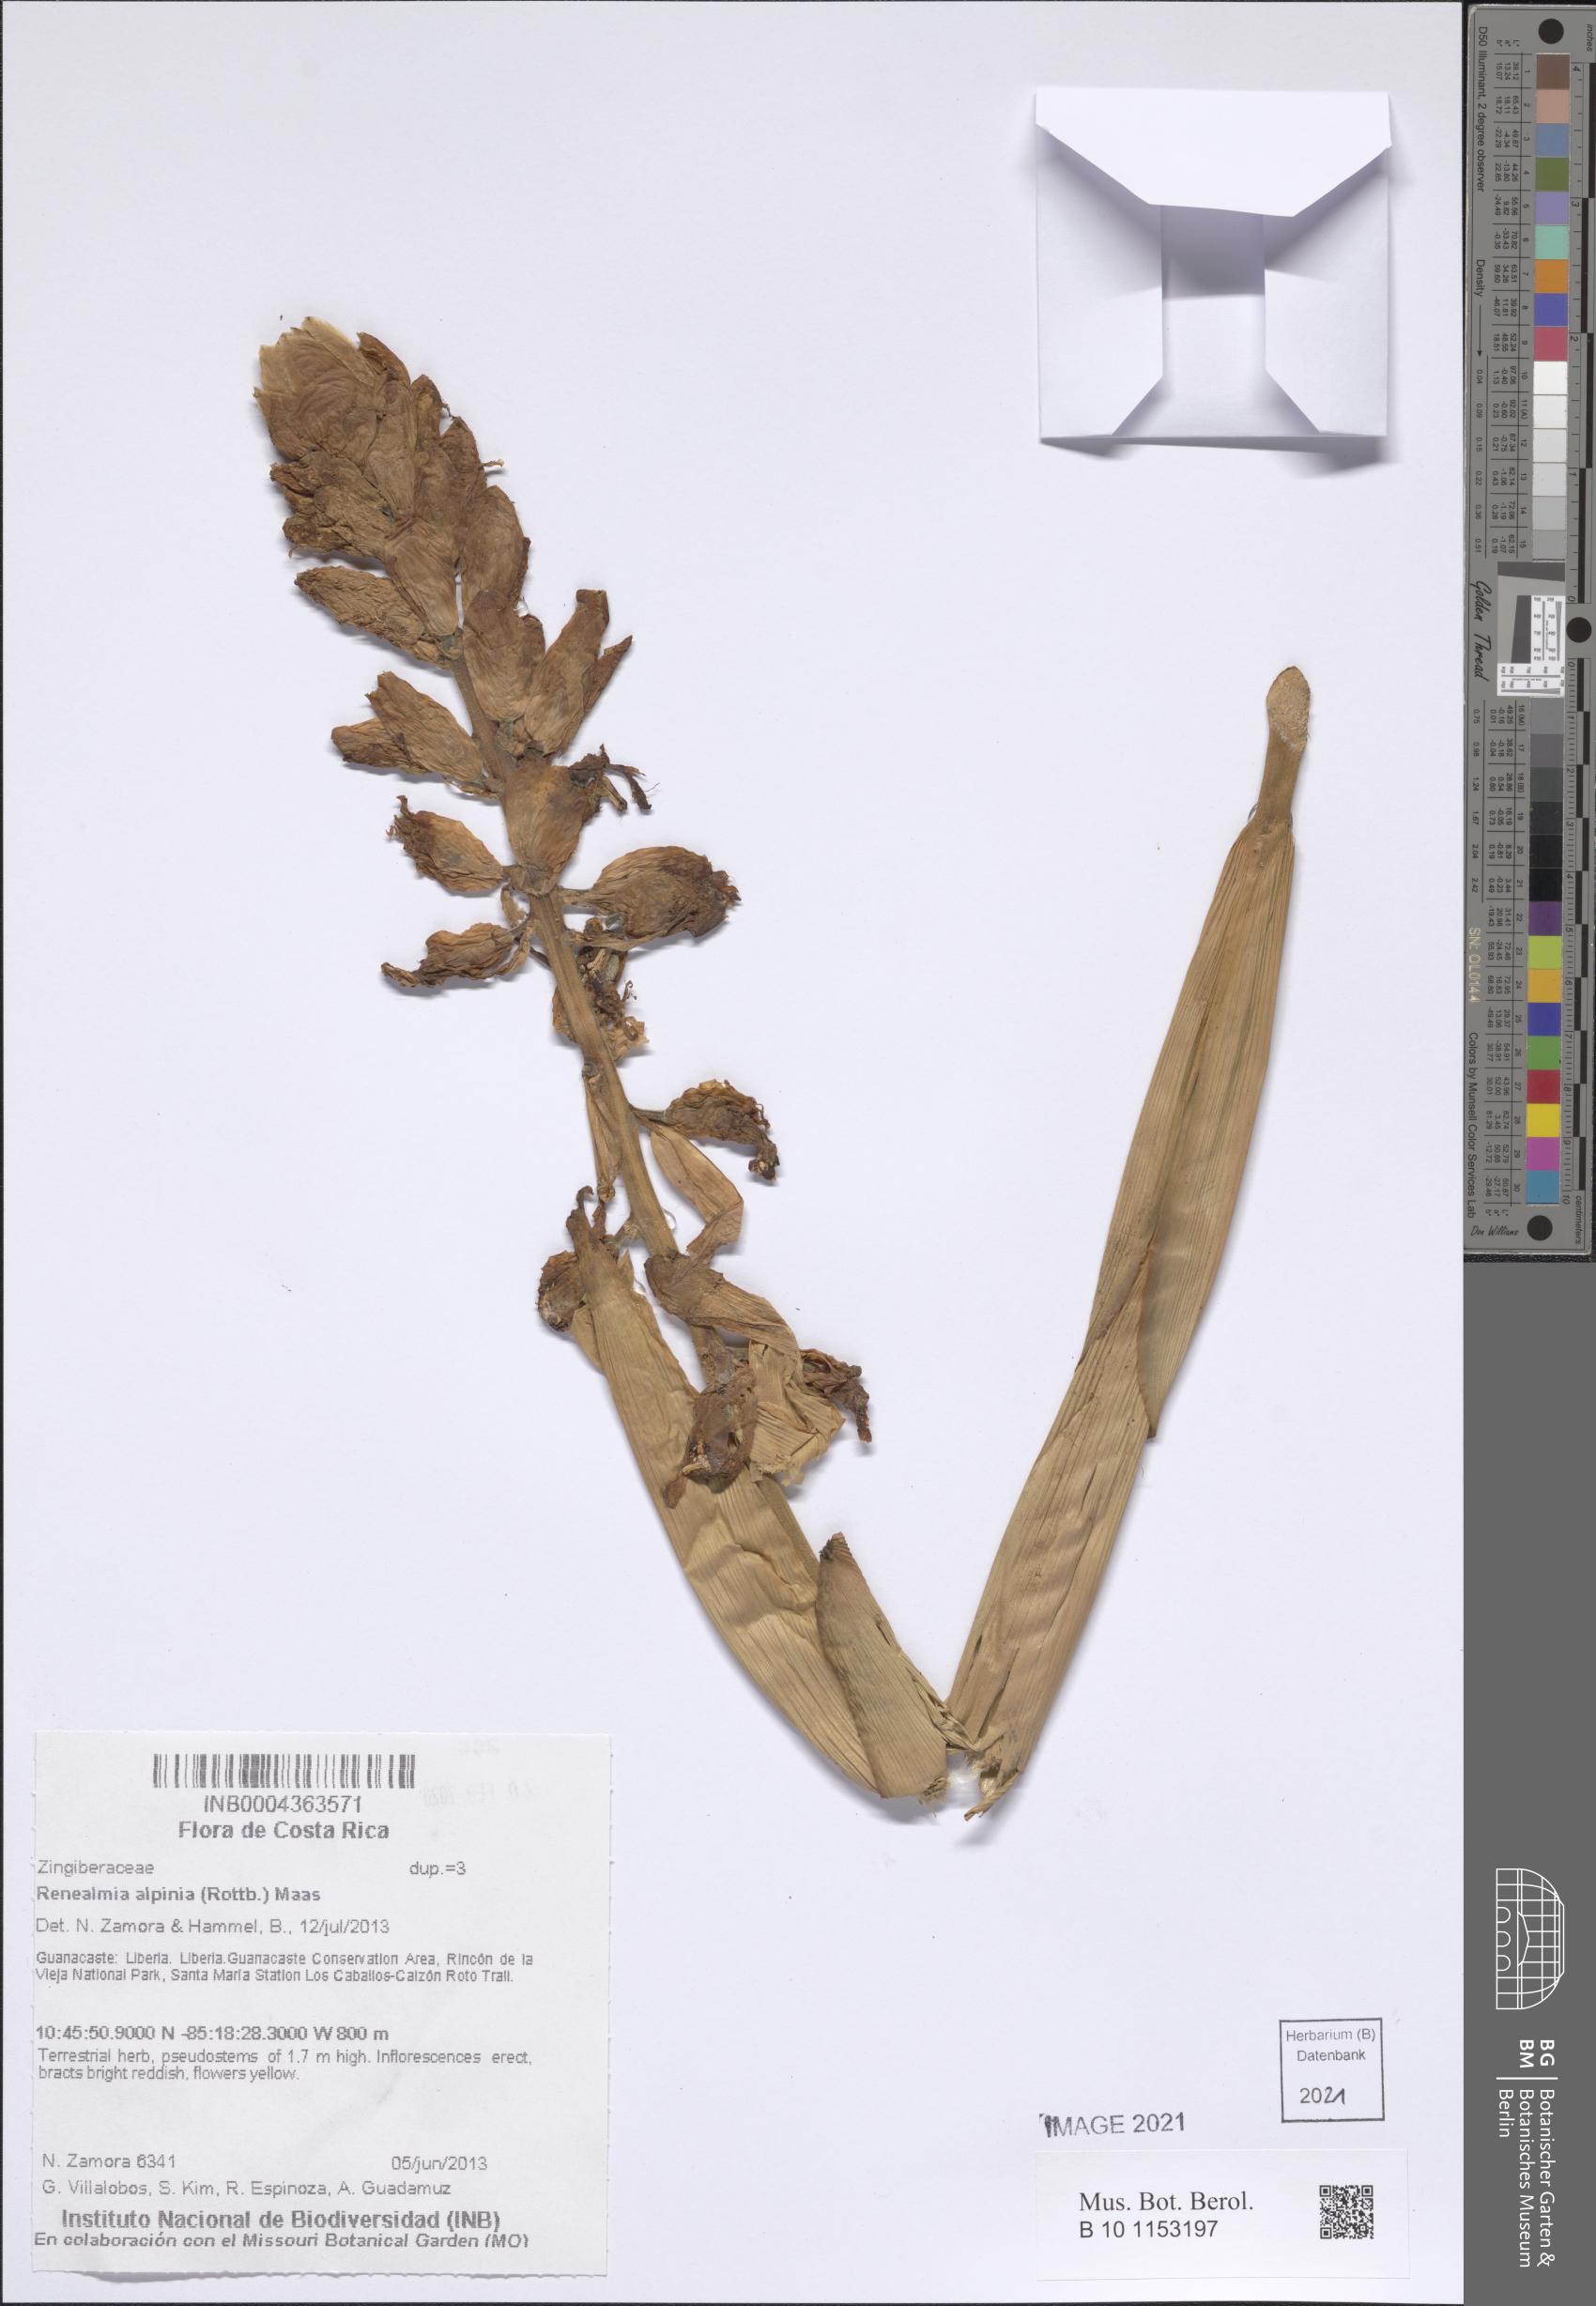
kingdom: Plantae
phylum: Tracheophyta
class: Liliopsida
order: Zingiberales
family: Zingiberaceae
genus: Renealmia
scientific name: Renealmia alpinia
